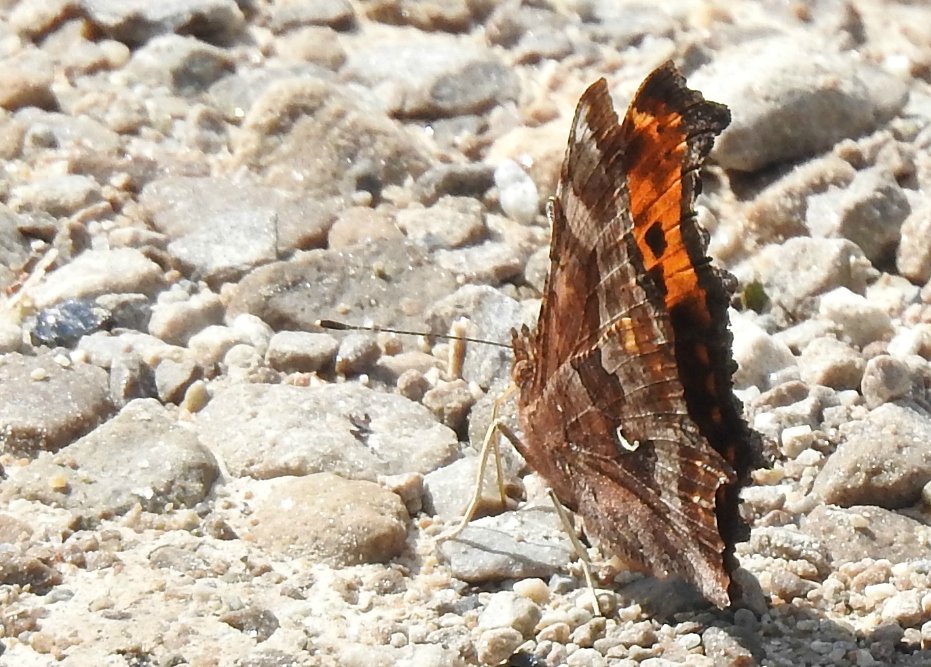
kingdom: Animalia
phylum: Arthropoda
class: Insecta
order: Lepidoptera
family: Nymphalidae
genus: Polygonia
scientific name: Polygonia comma
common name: Eastern Comma
